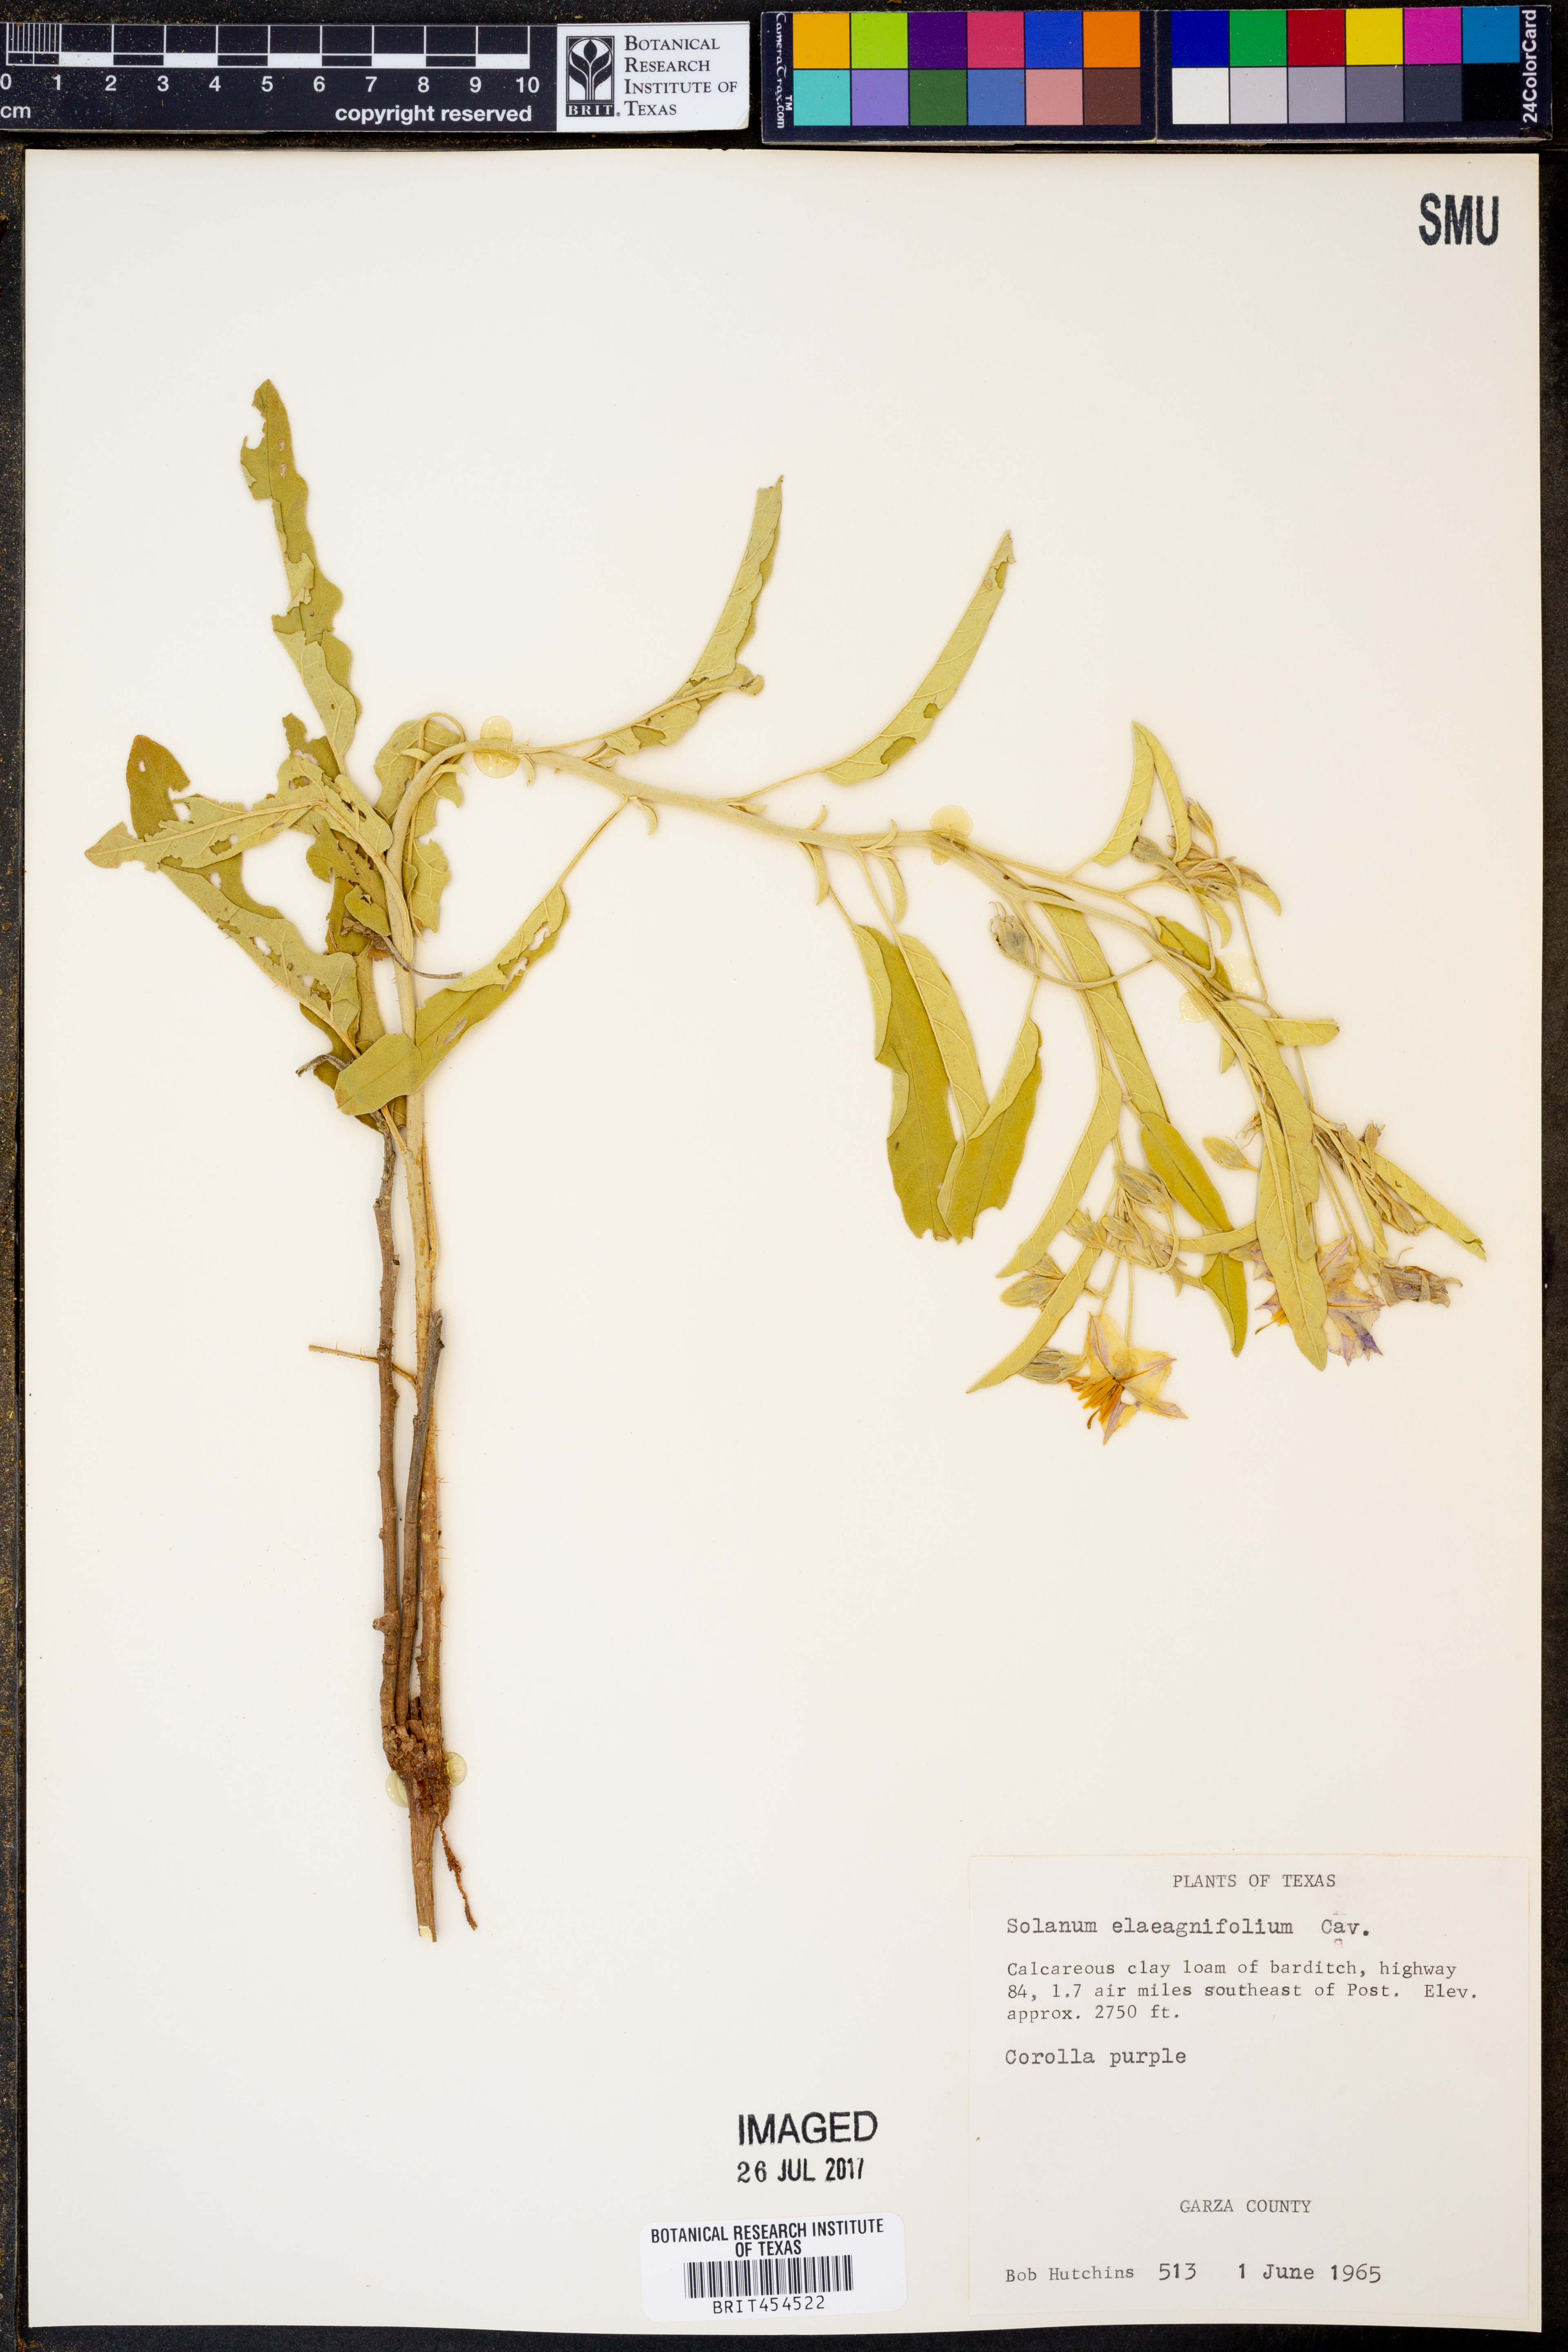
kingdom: Plantae
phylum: Tracheophyta
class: Magnoliopsida
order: Solanales
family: Solanaceae
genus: Solanum
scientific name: Solanum elaeagnifolium
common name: Silverleaf nightshade
